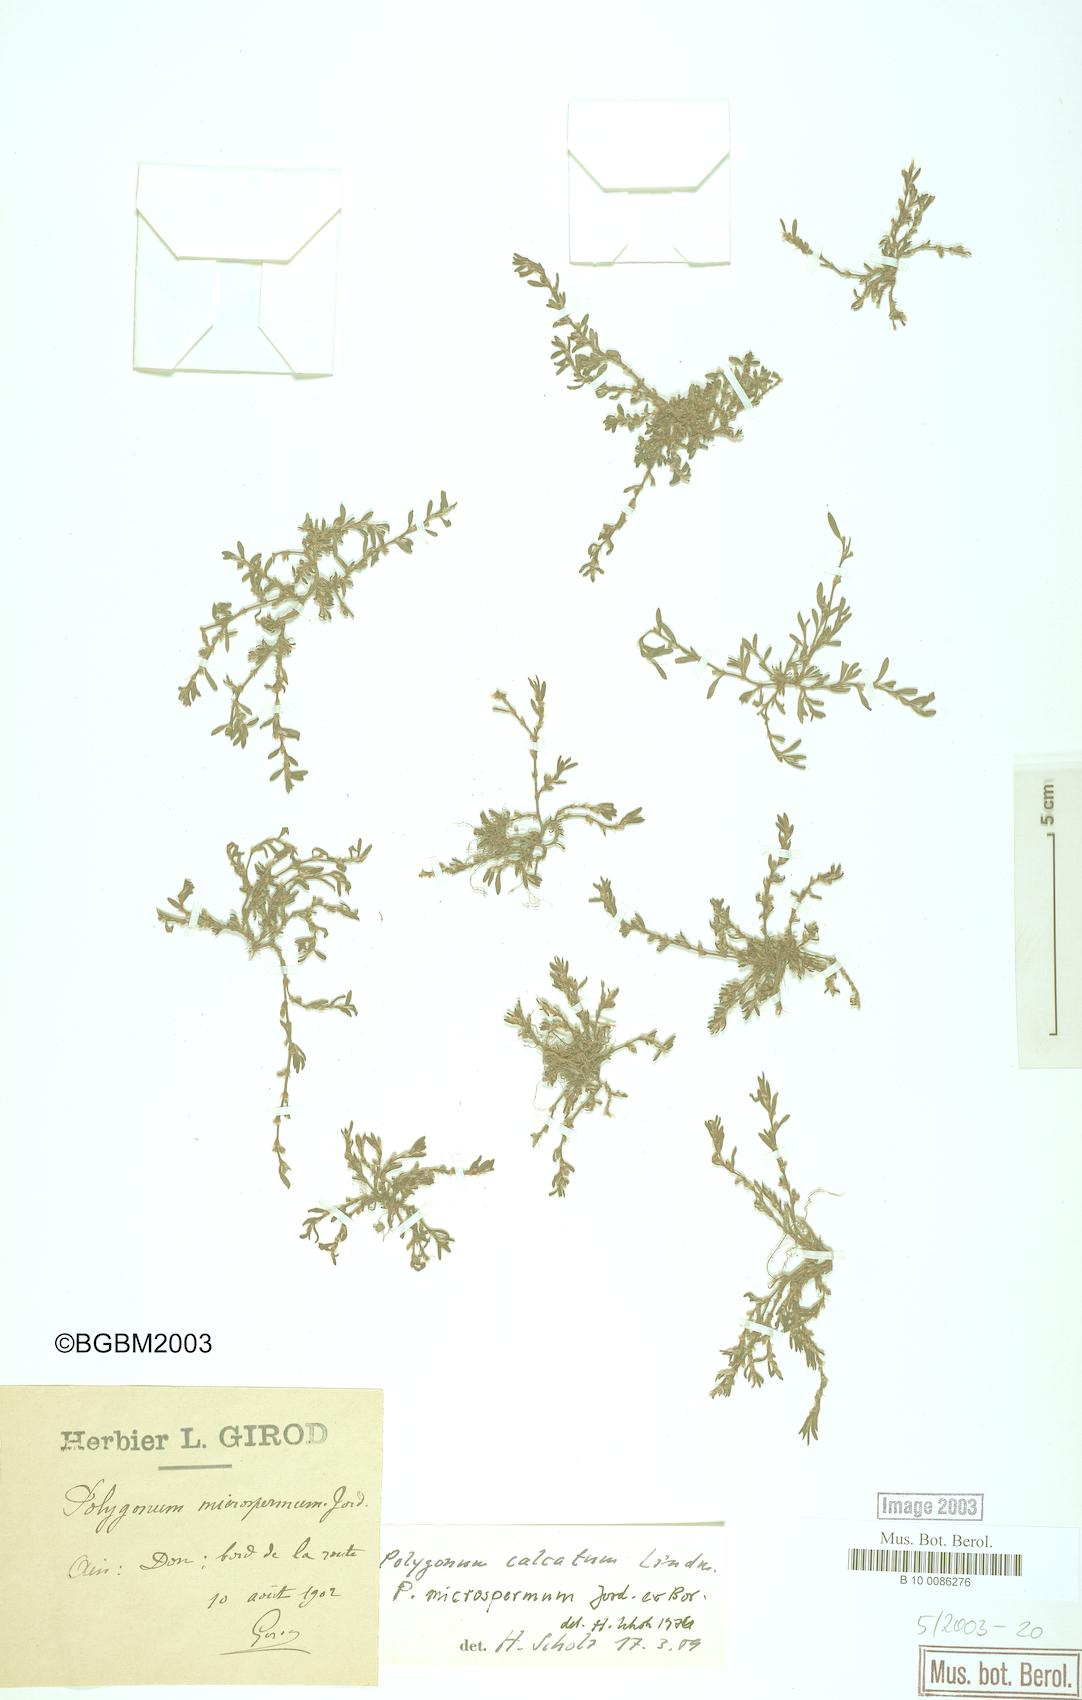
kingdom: Plantae
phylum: Tracheophyta
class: Magnoliopsida
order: Caryophyllales
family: Polygonaceae
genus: Polygonum
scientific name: Polygonum arenastrum
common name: Equal-leaved knotgrass
